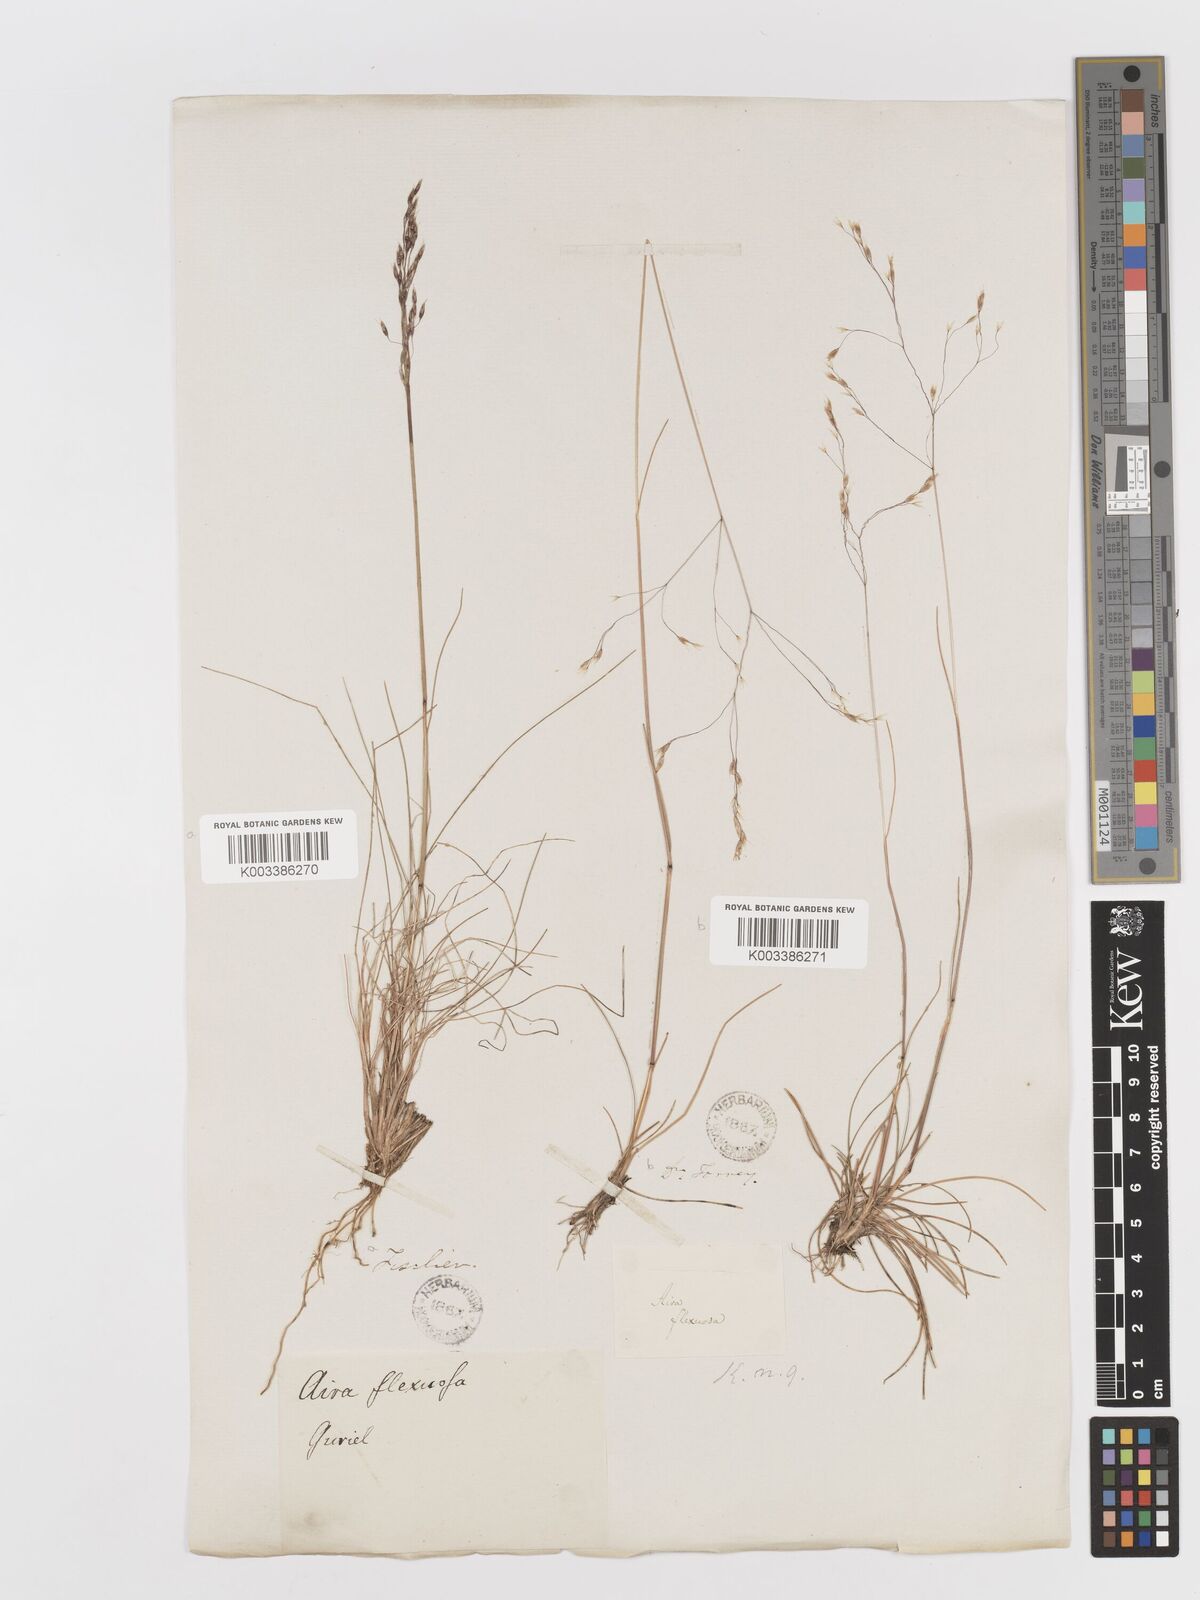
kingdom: Plantae
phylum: Tracheophyta
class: Liliopsida
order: Poales
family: Poaceae
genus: Avenella
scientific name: Avenella flexuosa
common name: Wavy hairgrass
